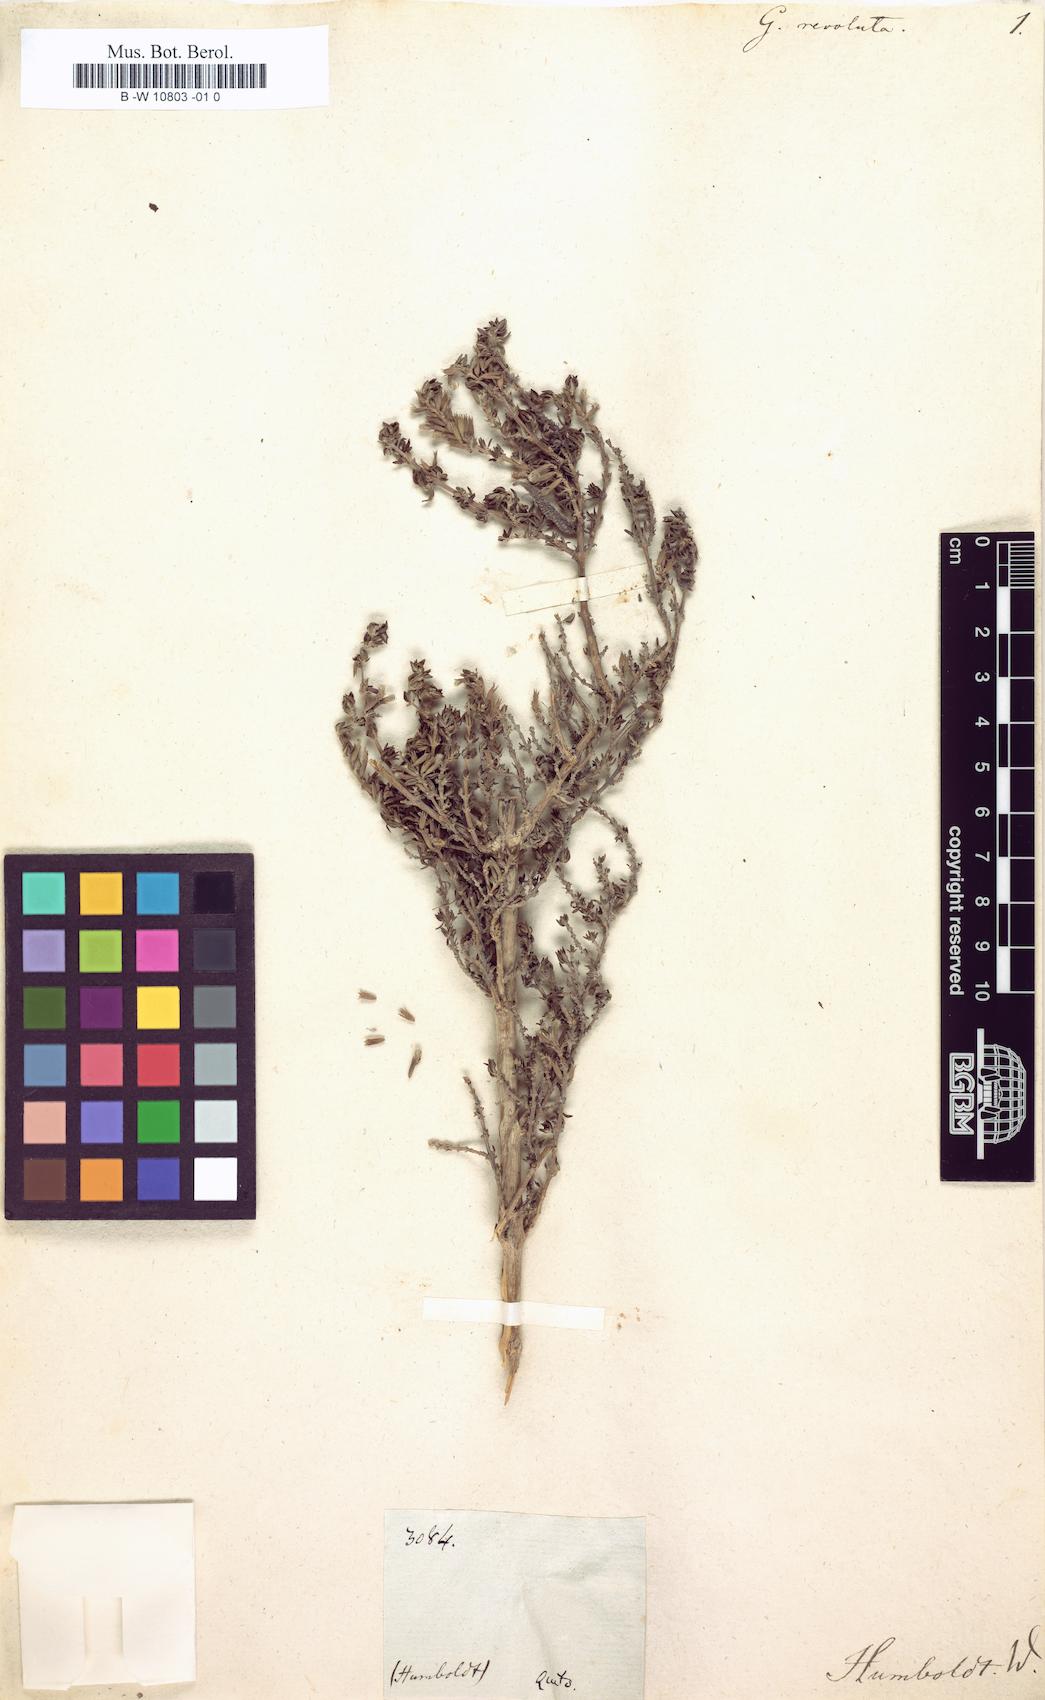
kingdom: Plantae
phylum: Tracheophyta
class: Magnoliopsida
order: Lamiales
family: Lamiaceae
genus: Clinopodium
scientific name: Clinopodium revolutum
